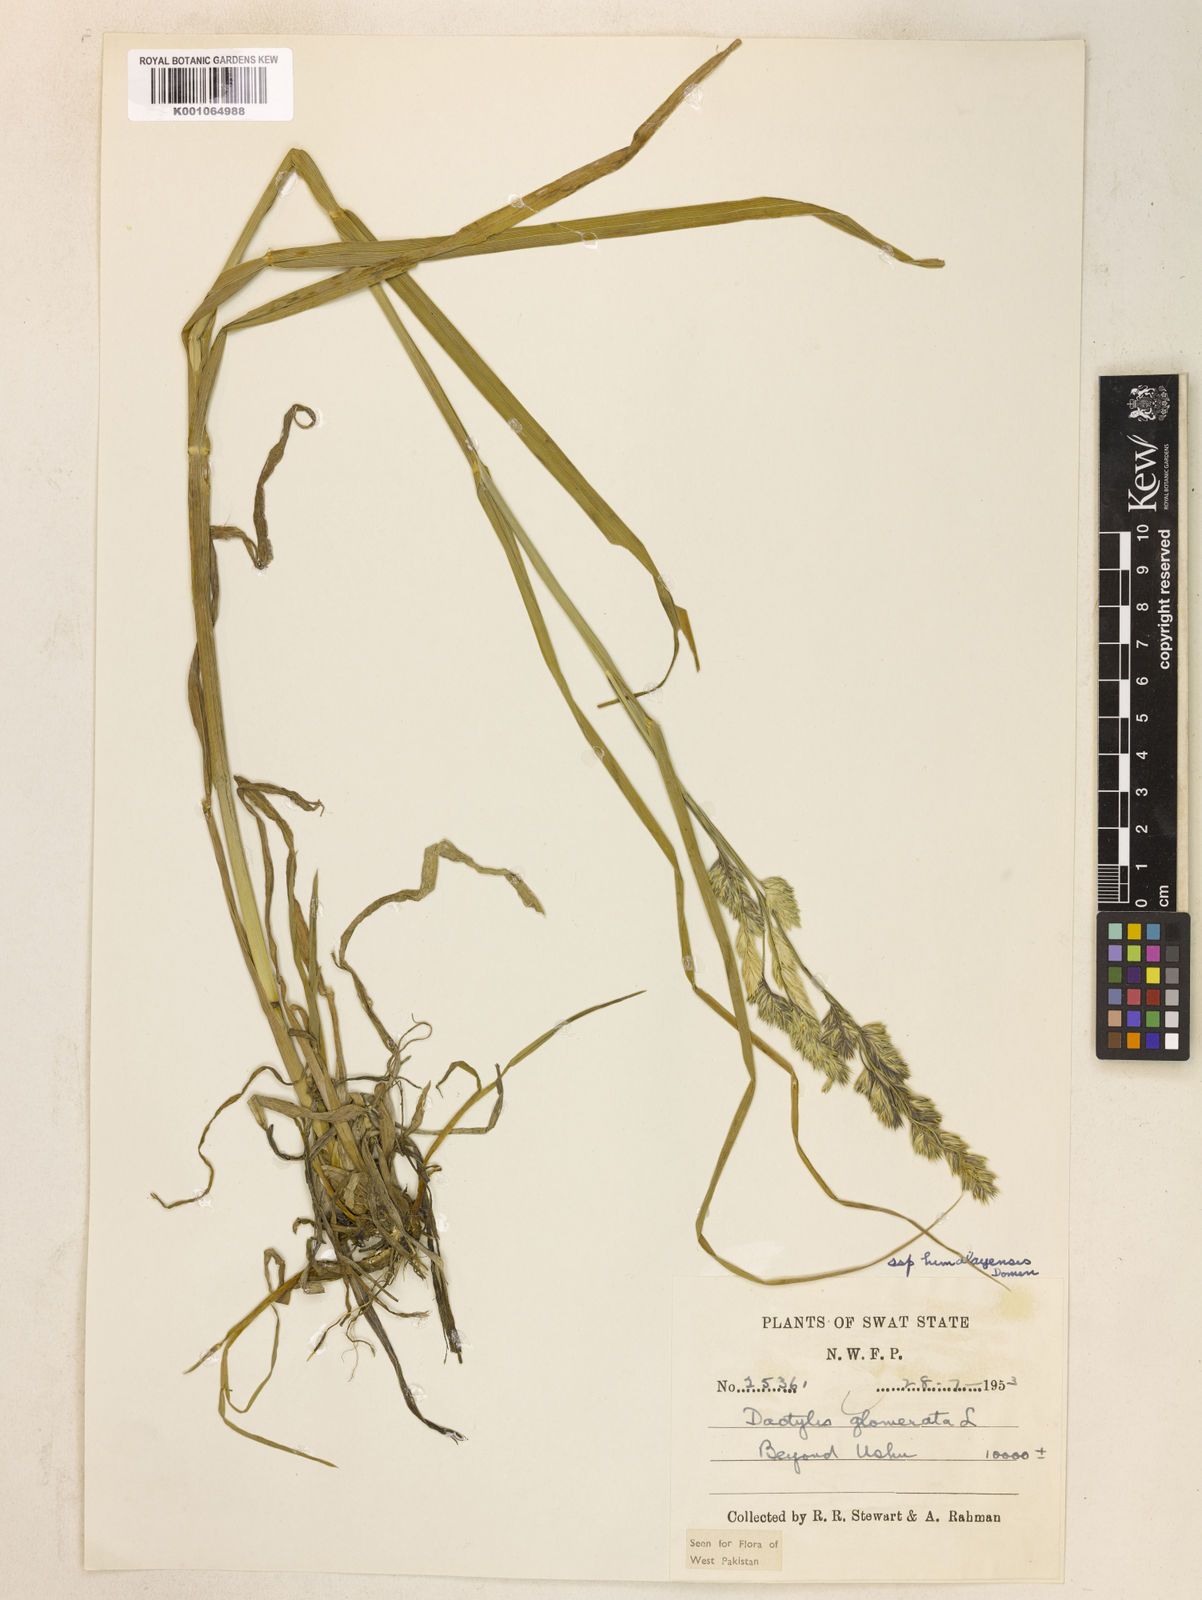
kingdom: Plantae
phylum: Tracheophyta
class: Liliopsida
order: Poales
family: Poaceae
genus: Dactylis
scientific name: Dactylis glomerata
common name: Orchardgrass
